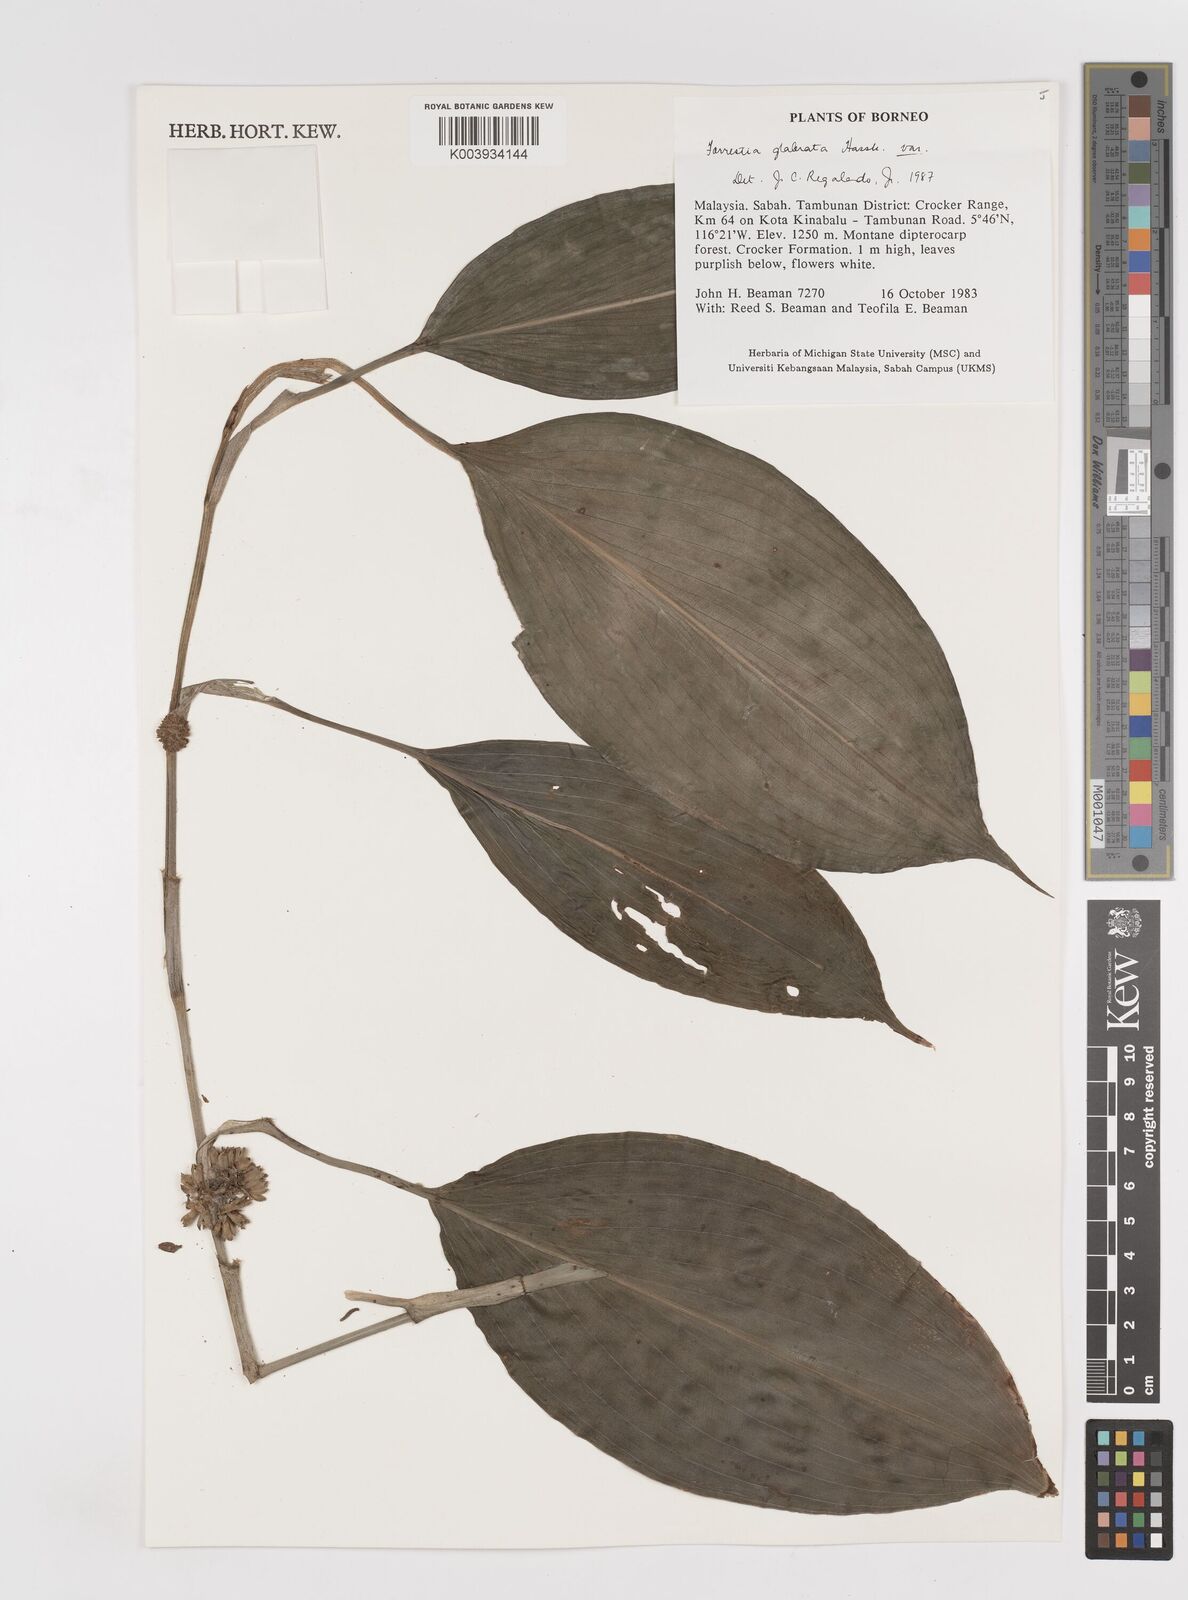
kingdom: Plantae
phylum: Tracheophyta
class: Liliopsida
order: Commelinales
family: Commelinaceae
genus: Amischotolype
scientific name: Amischotolype
